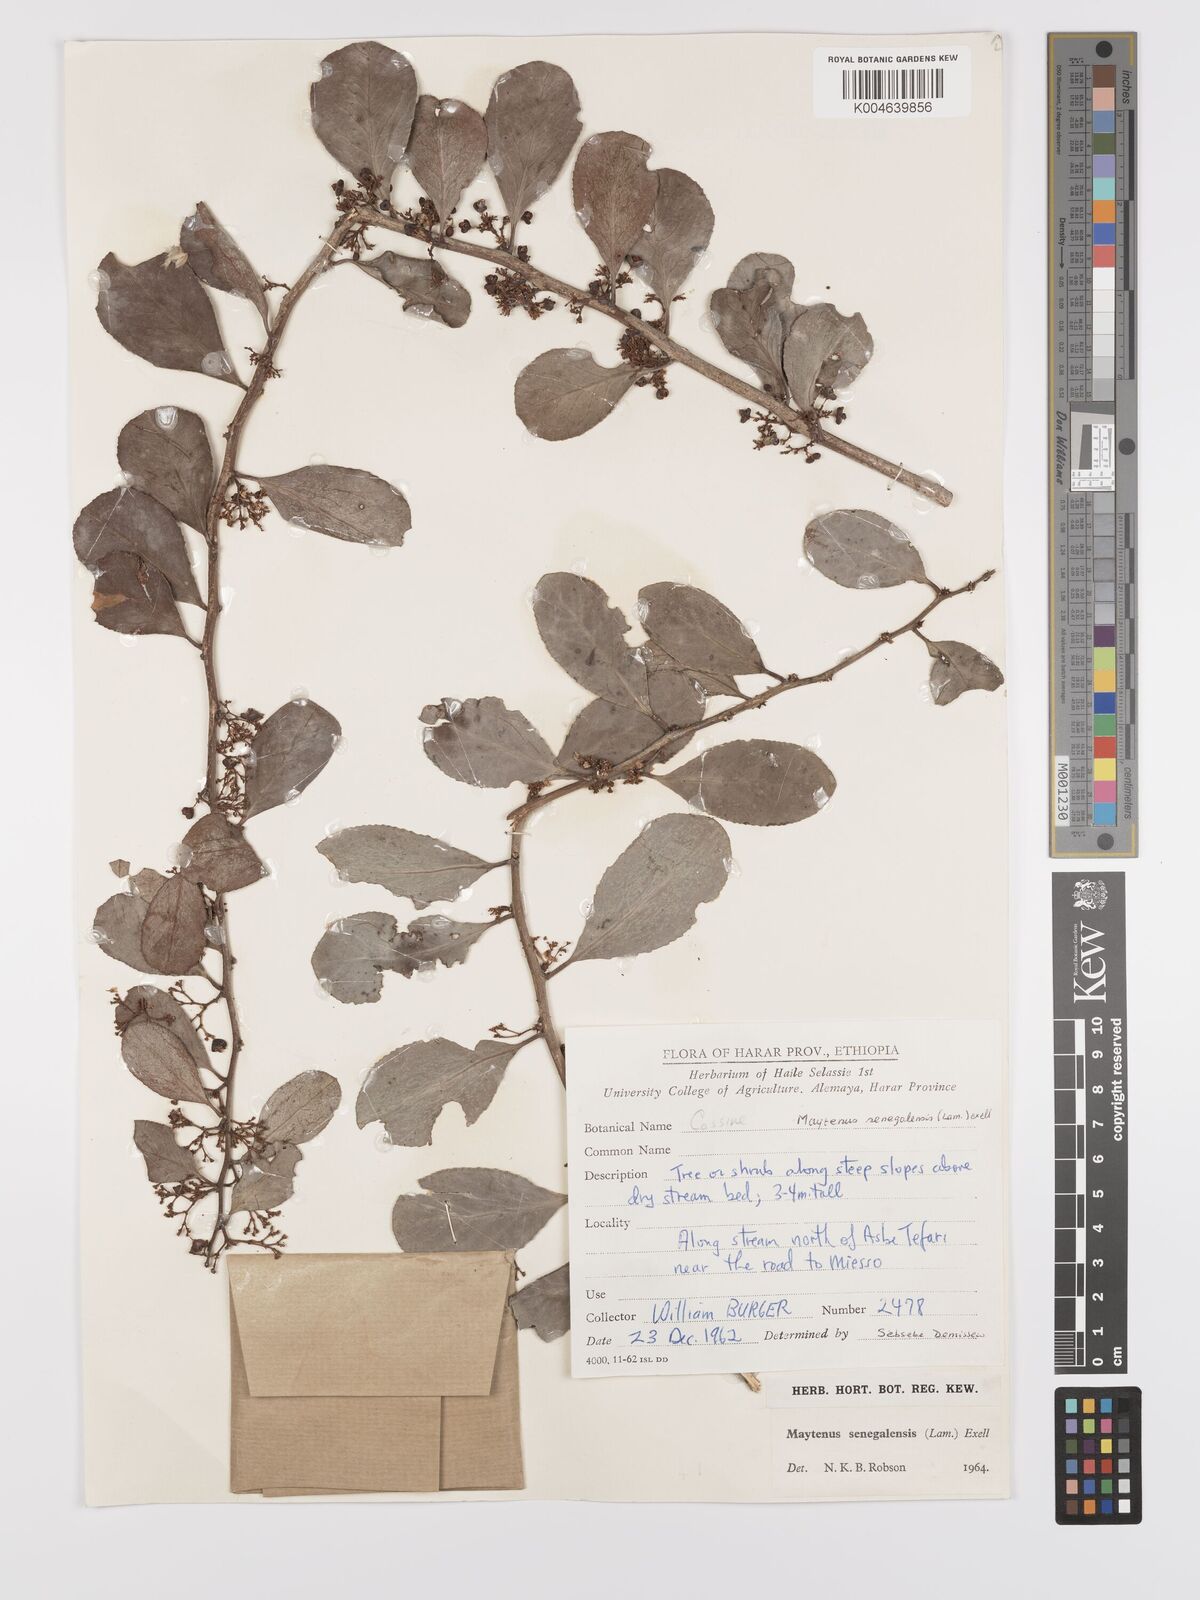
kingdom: Plantae
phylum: Tracheophyta
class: Magnoliopsida
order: Celastrales
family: Celastraceae
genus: Gymnosporia
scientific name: Gymnosporia senegalensis
